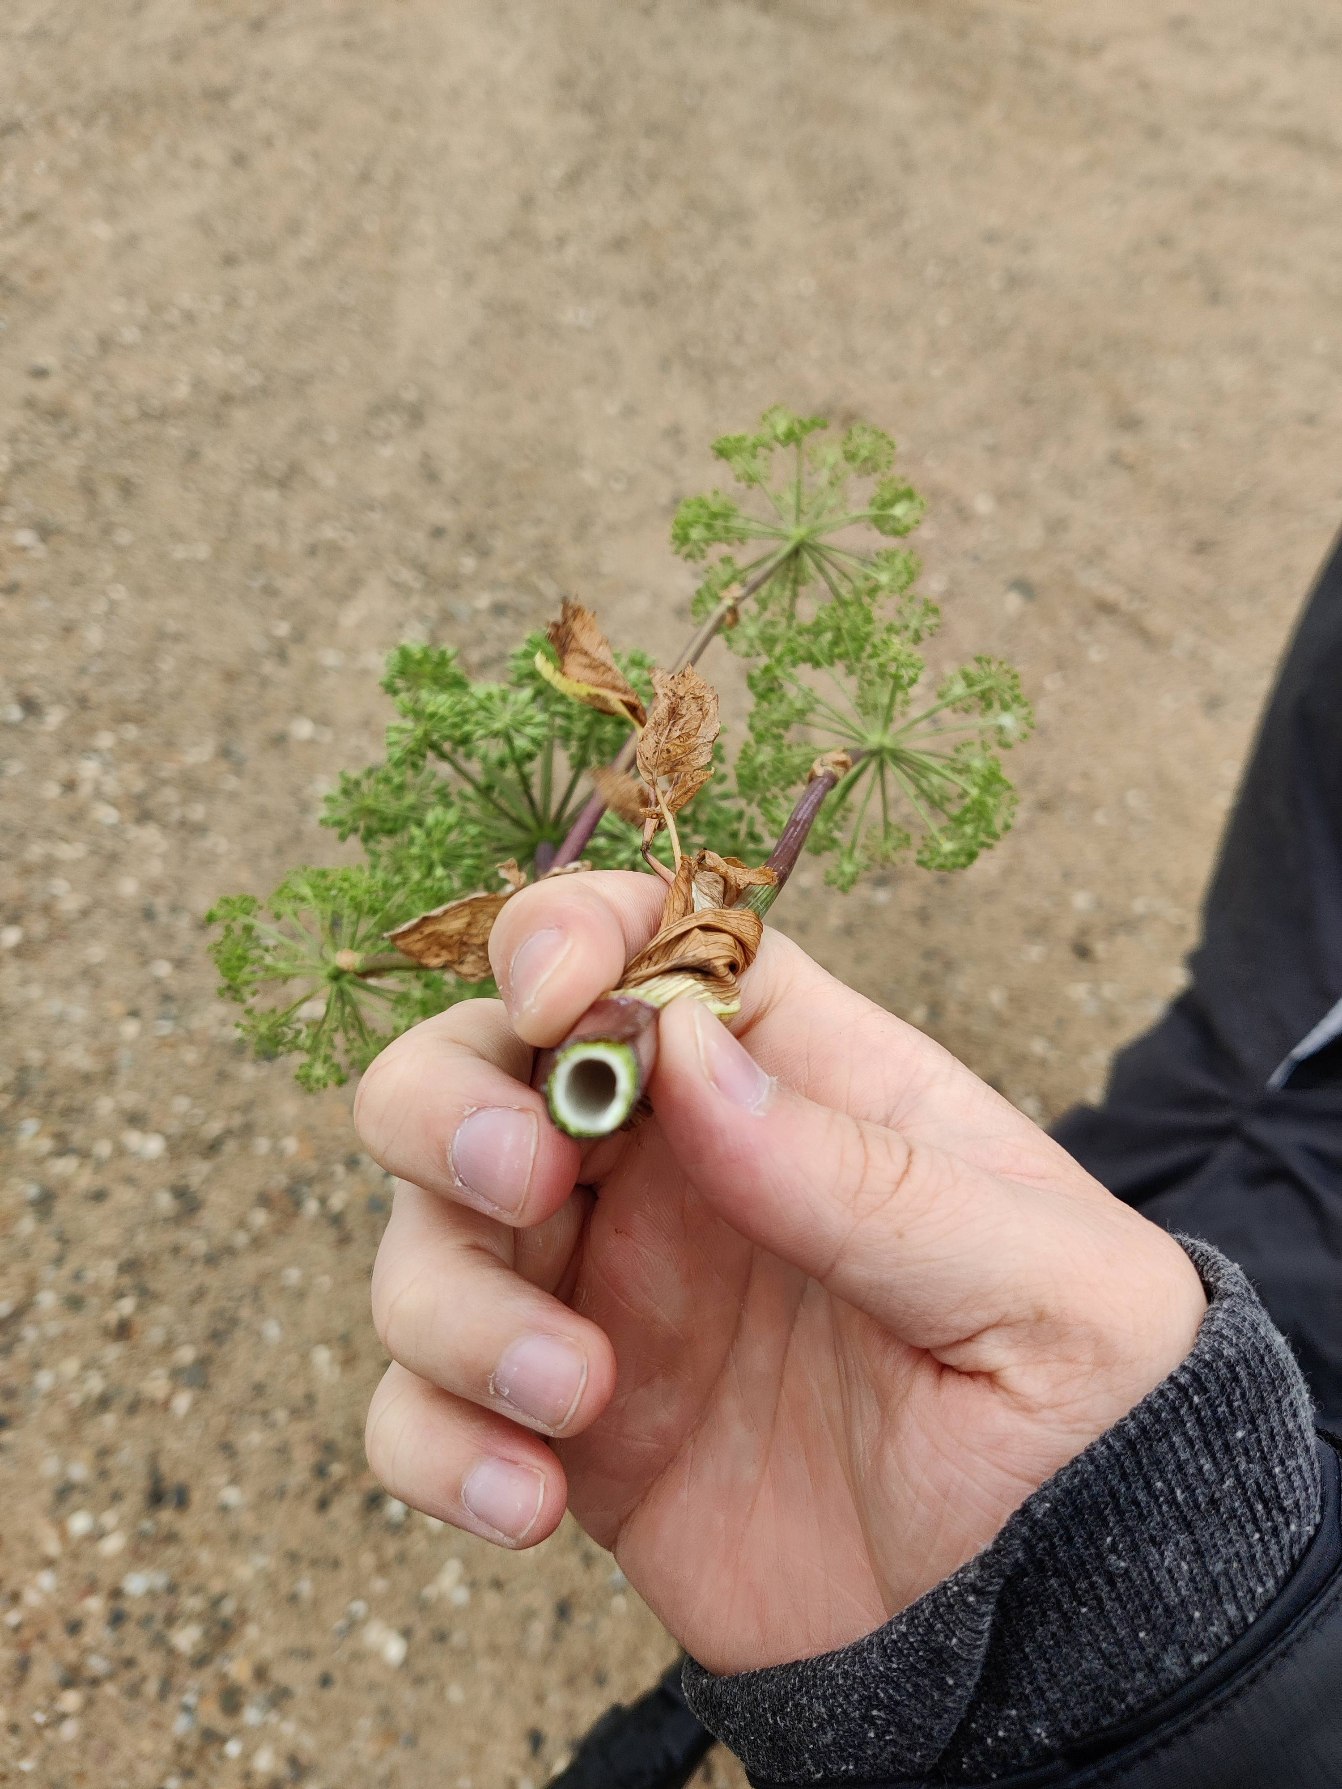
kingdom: Plantae
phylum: Tracheophyta
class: Magnoliopsida
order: Apiales
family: Apiaceae
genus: Angelica
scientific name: Angelica archangelica
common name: Kvan
